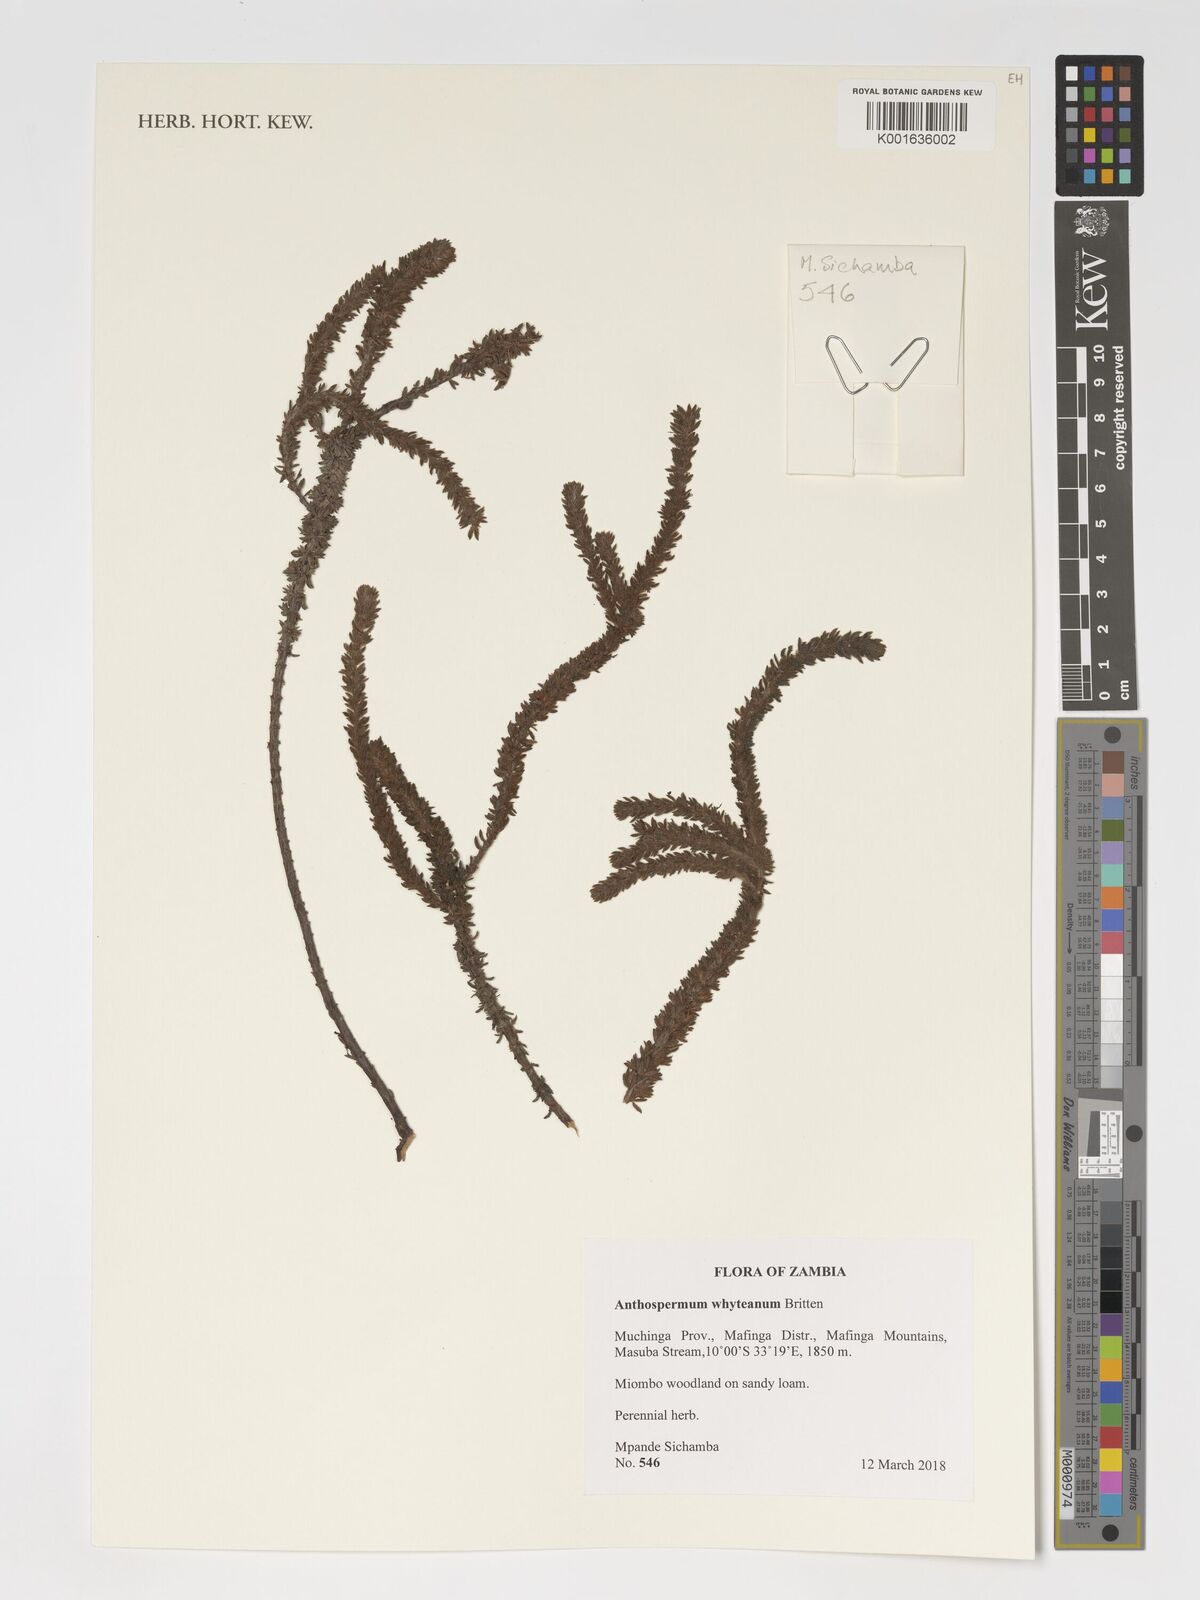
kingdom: Plantae
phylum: Tracheophyta
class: Magnoliopsida
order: Gentianales
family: Rubiaceae
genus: Anthospermum
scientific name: Anthospermum whyteanum
